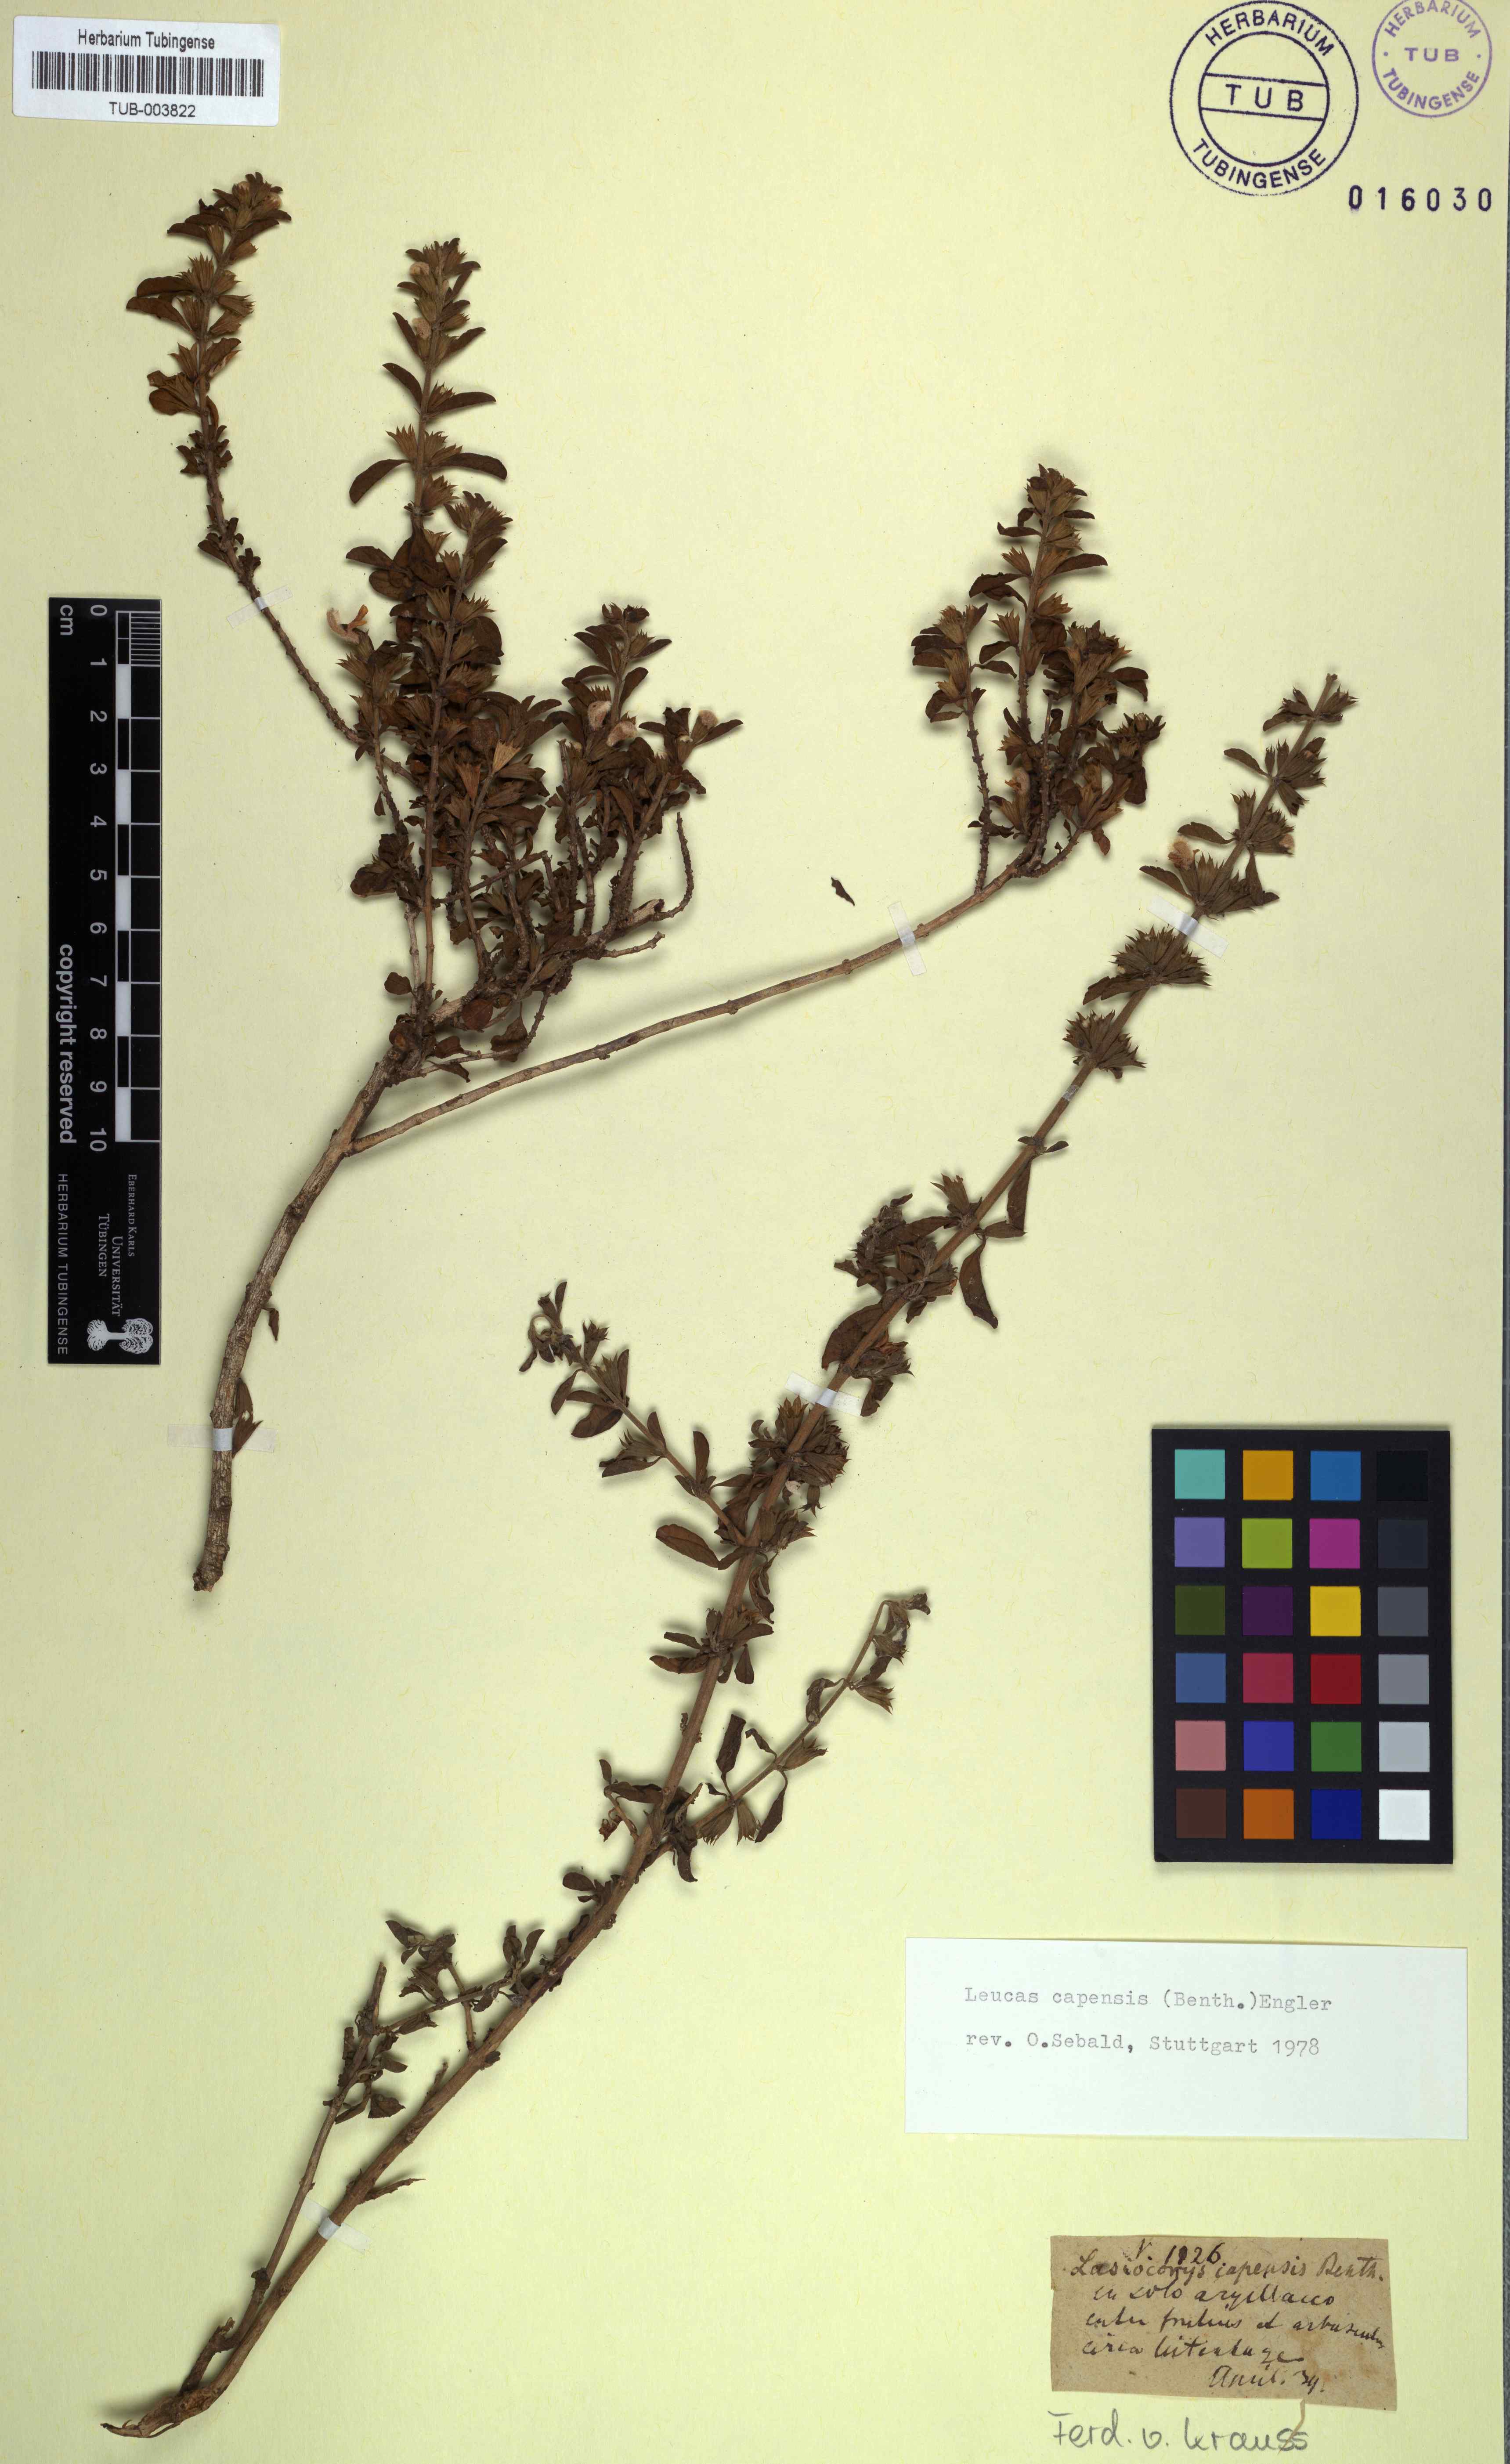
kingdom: Plantae
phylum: Tracheophyta
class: Magnoliopsida
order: Lamiales
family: Lamiaceae
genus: Leucas
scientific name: Leucas capensis
